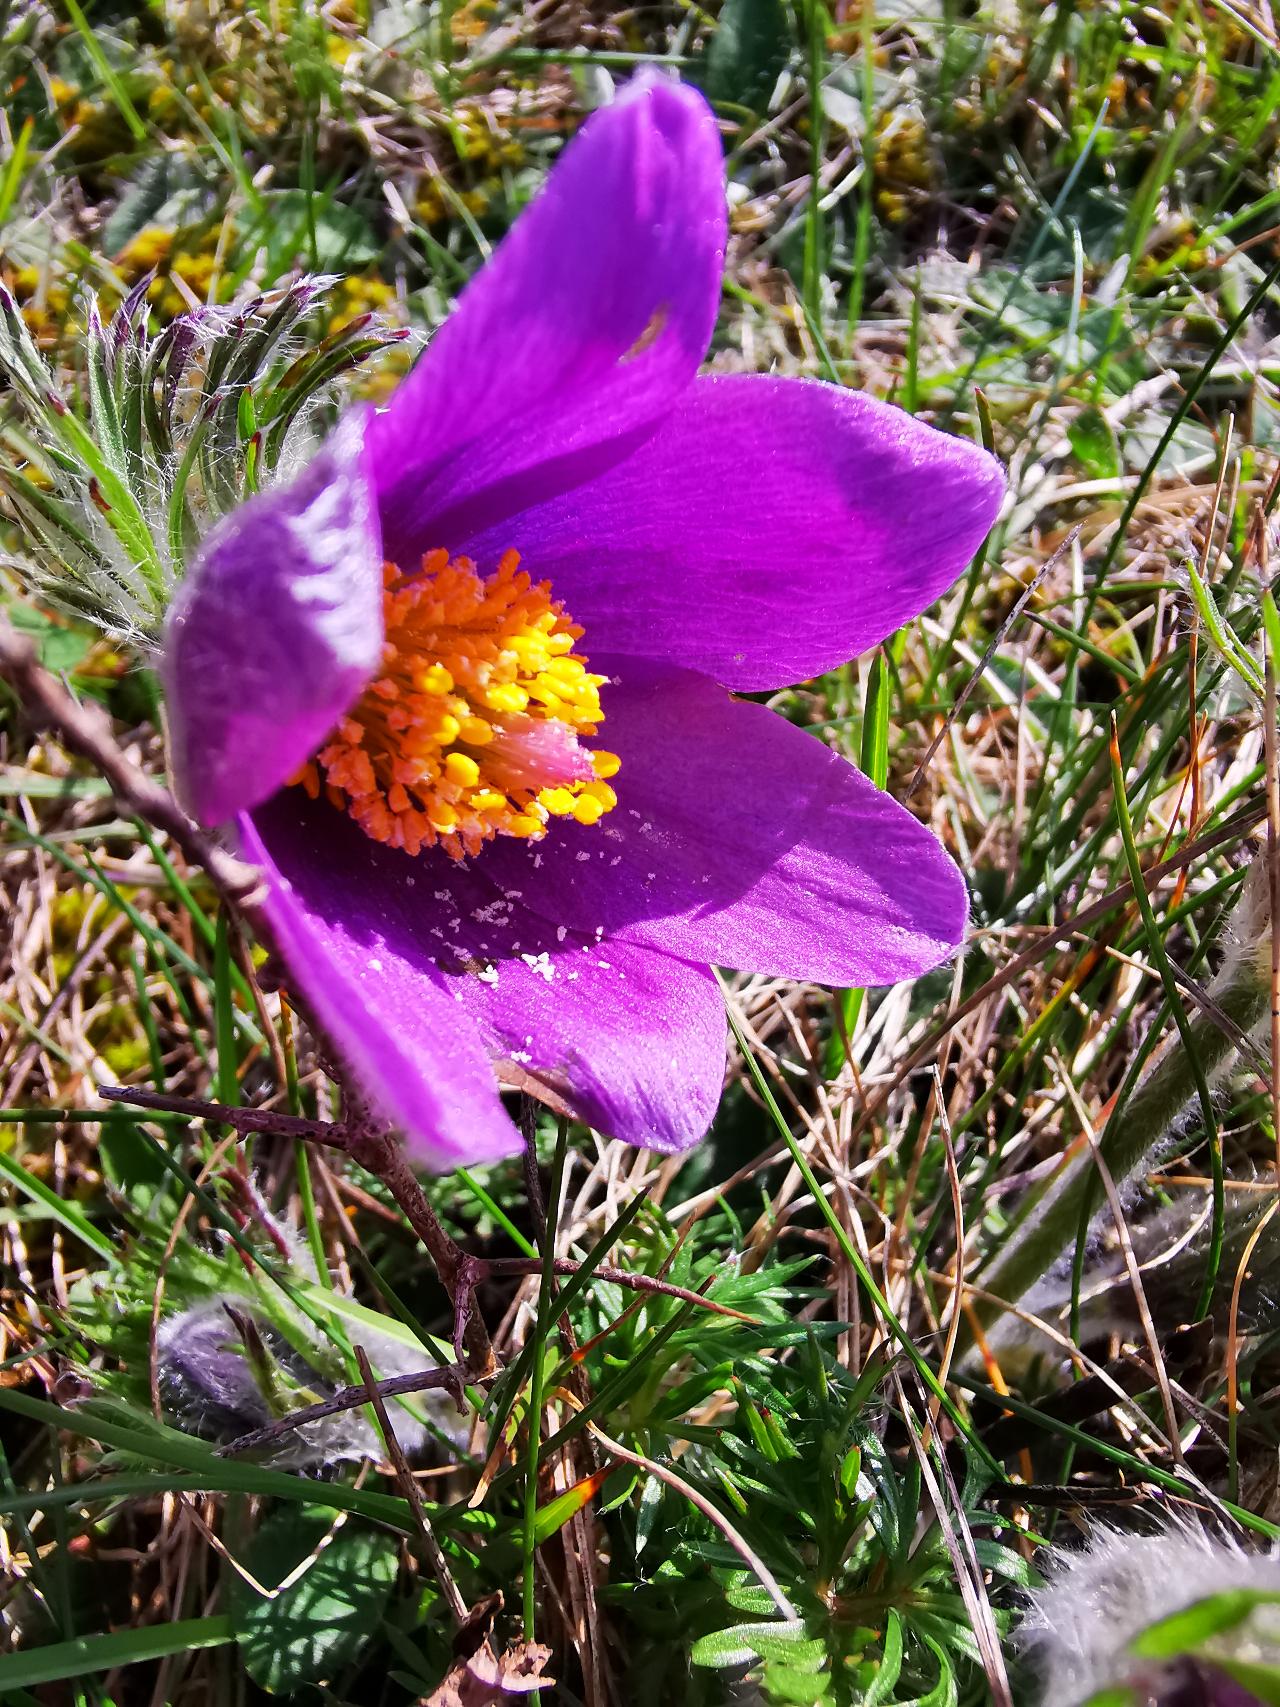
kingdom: Plantae
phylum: Tracheophyta
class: Magnoliopsida
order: Ranunculales
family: Ranunculaceae
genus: Pulsatilla
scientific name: Pulsatilla vulgaris
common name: Opret kobjælde
